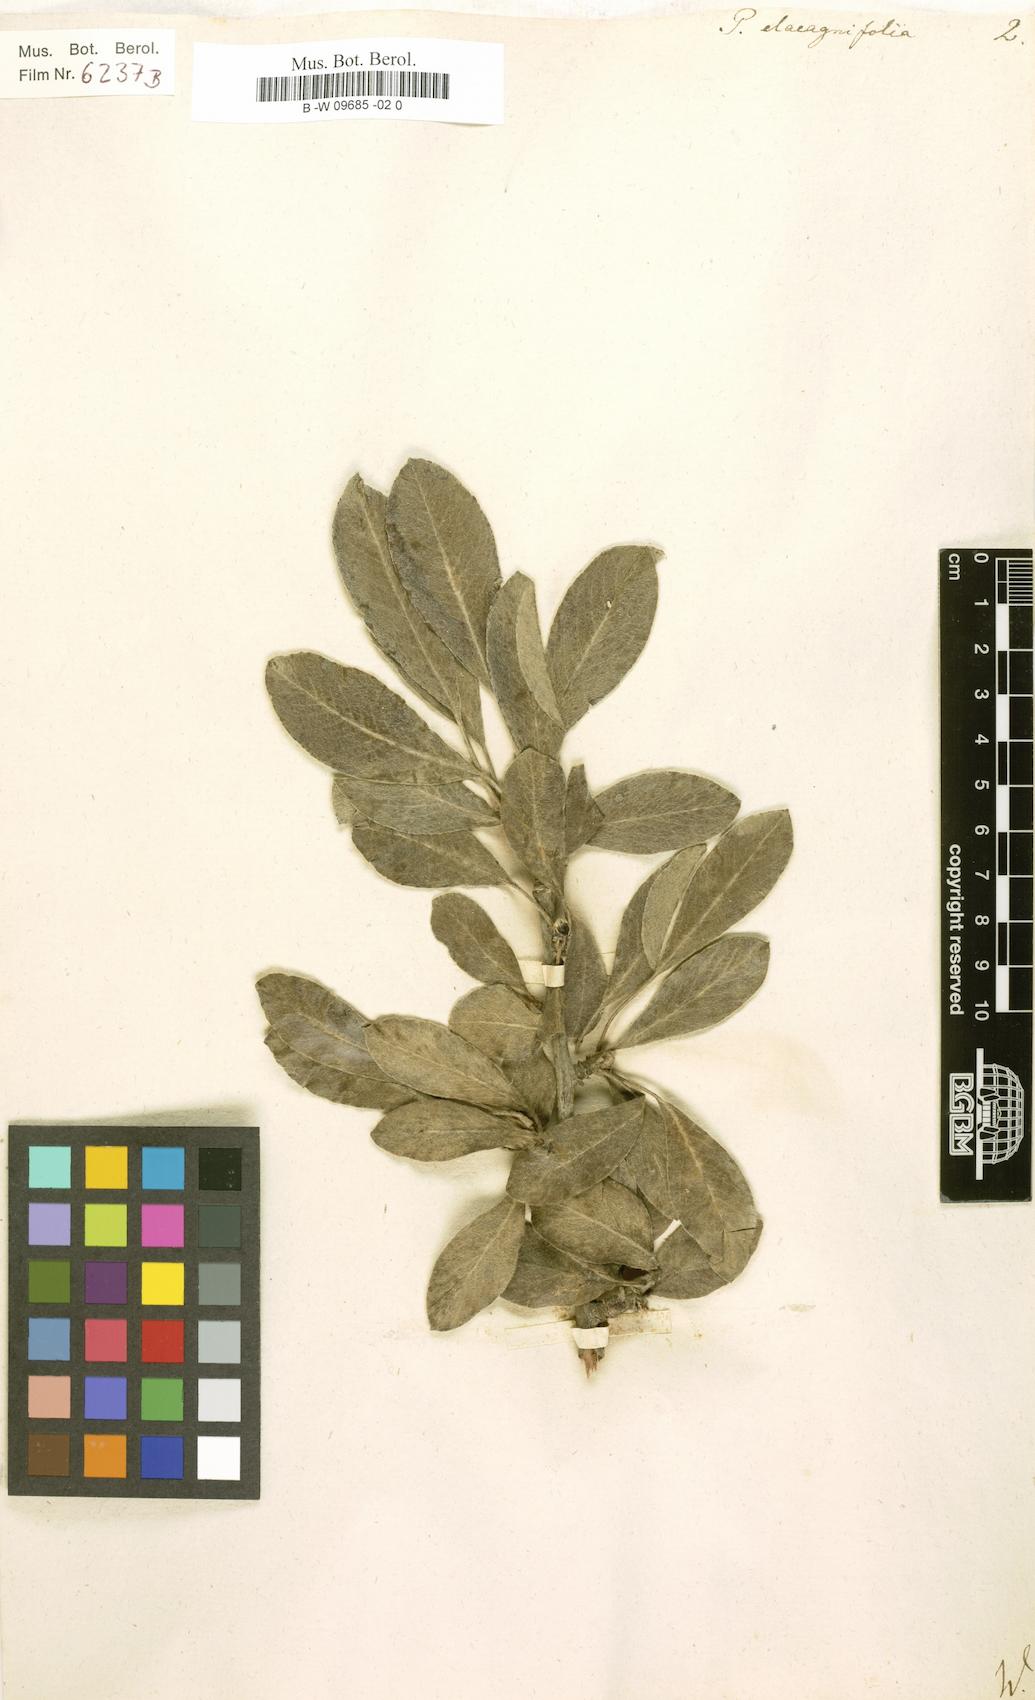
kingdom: Plantae
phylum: Tracheophyta
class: Magnoliopsida
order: Rosales
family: Rosaceae
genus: Pyrus
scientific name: Pyrus elaeagnifolia
